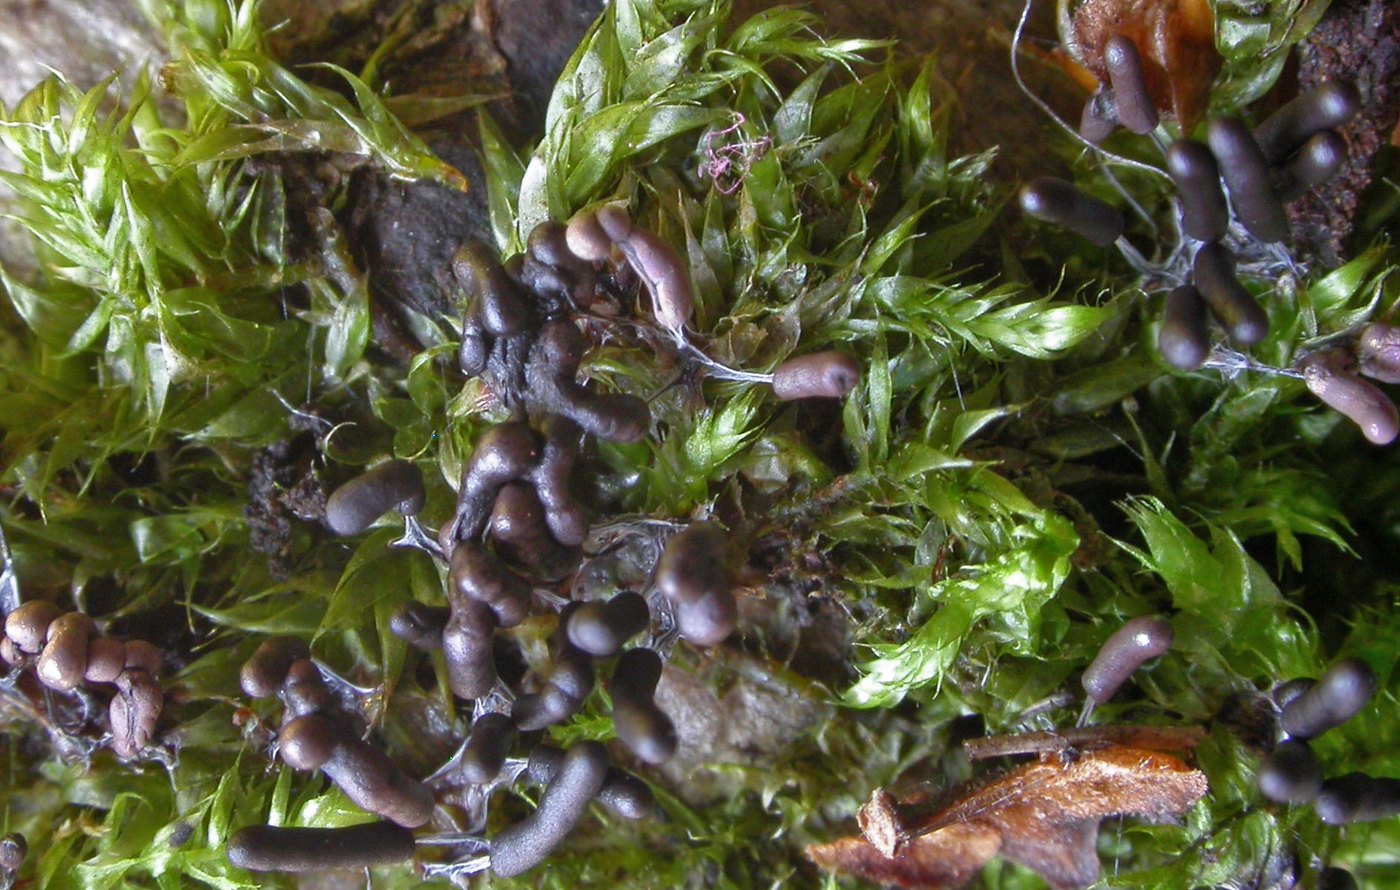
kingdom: Protozoa
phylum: Mycetozoa
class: Myxomycetes
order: Stemonitidales
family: Stemonitidaceae
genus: Stemonitopsis
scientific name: Stemonitopsis typhina
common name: skinnende støvkølle
